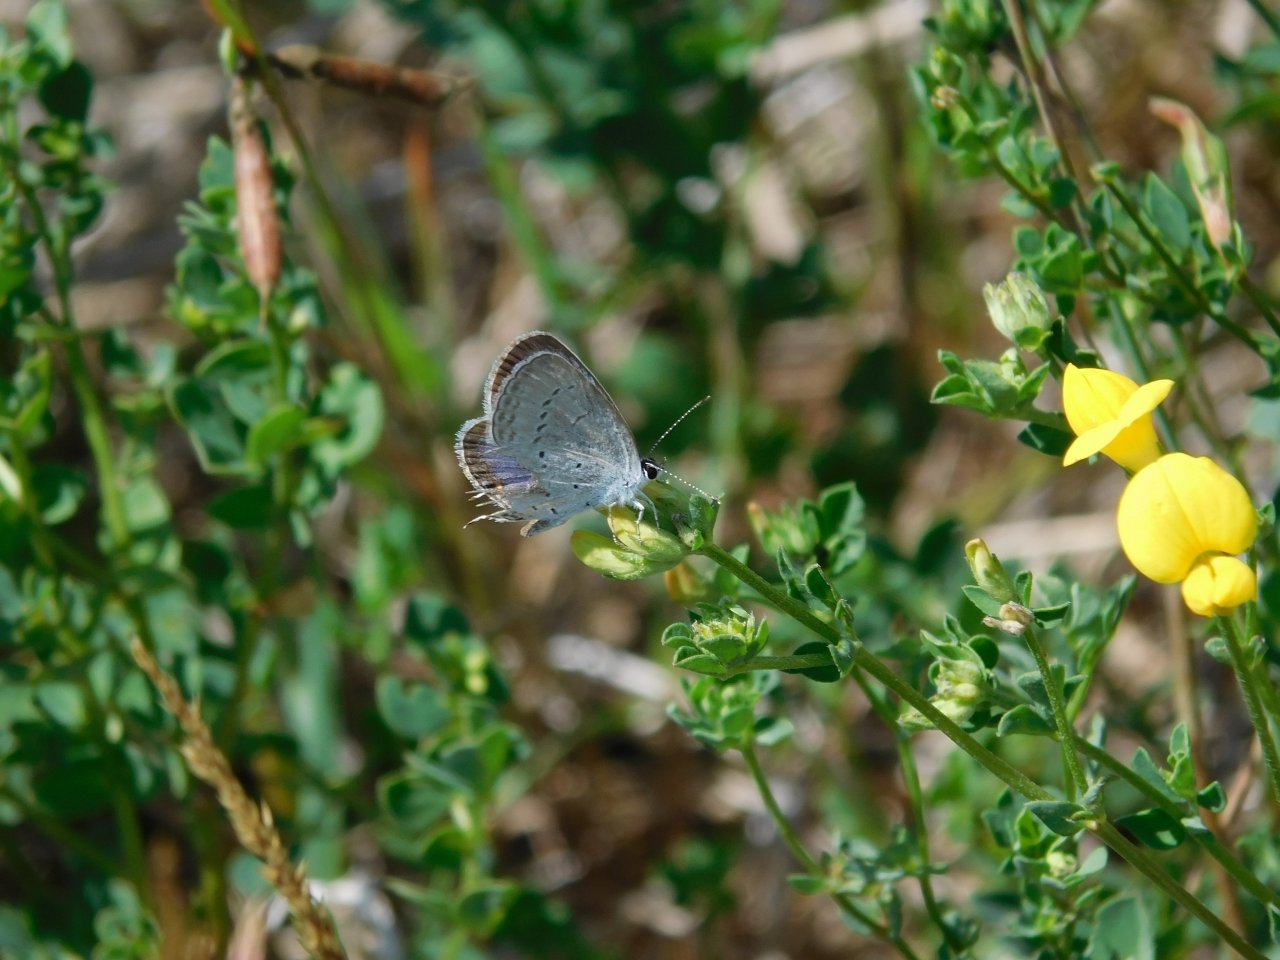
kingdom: Animalia
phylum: Arthropoda
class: Insecta
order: Lepidoptera
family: Lycaenidae
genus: Elkalyce
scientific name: Elkalyce comyntas
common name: Eastern Tailed-Blue
